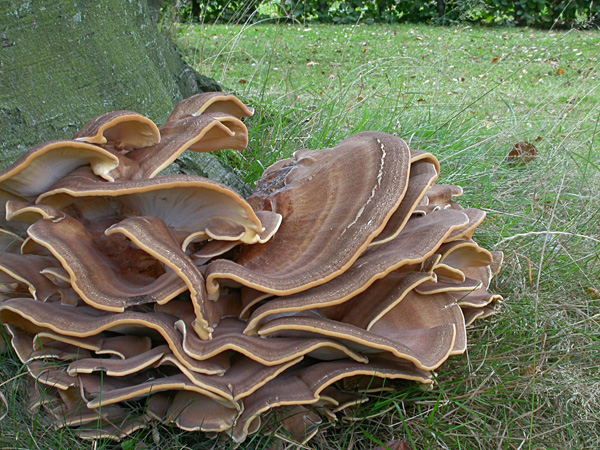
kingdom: Fungi
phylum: Basidiomycota
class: Agaricomycetes
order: Polyporales
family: Meripilaceae
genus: Meripilus
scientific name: Meripilus giganteus
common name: kæmpeporesvamp
